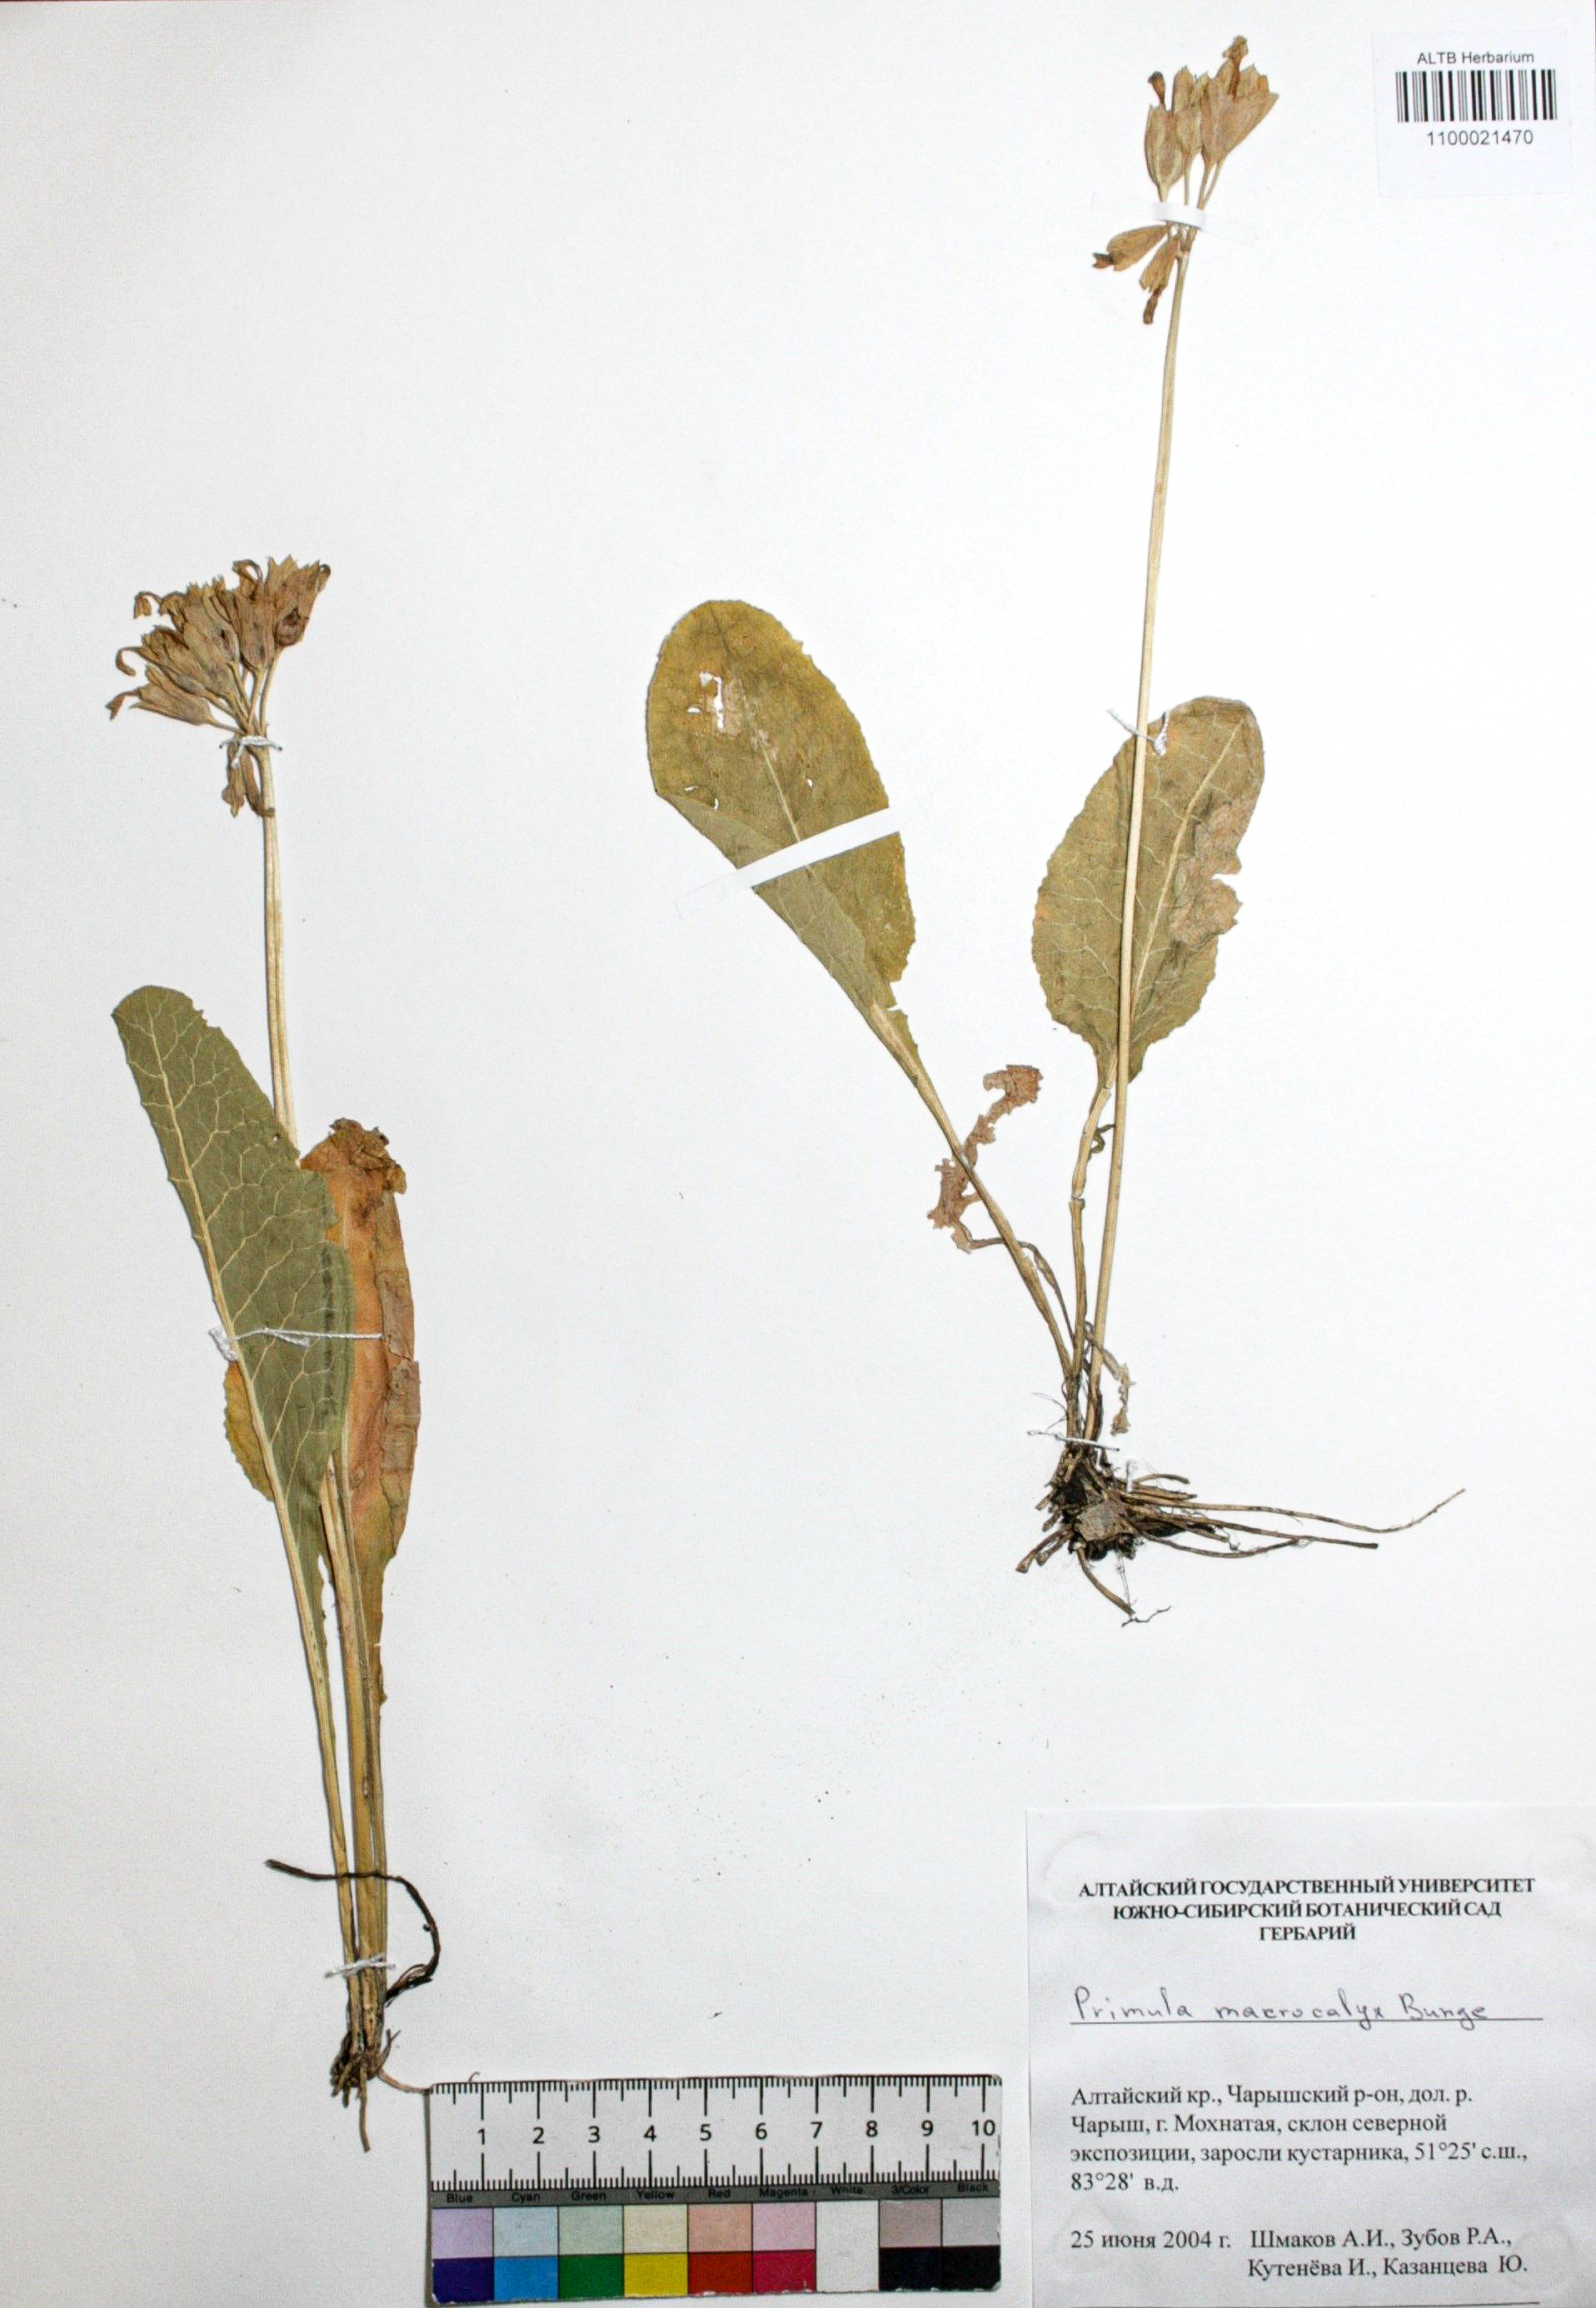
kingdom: Plantae
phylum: Tracheophyta
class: Magnoliopsida
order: Ericales
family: Primulaceae
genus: Primula
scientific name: Primula veris
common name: Cowslip
